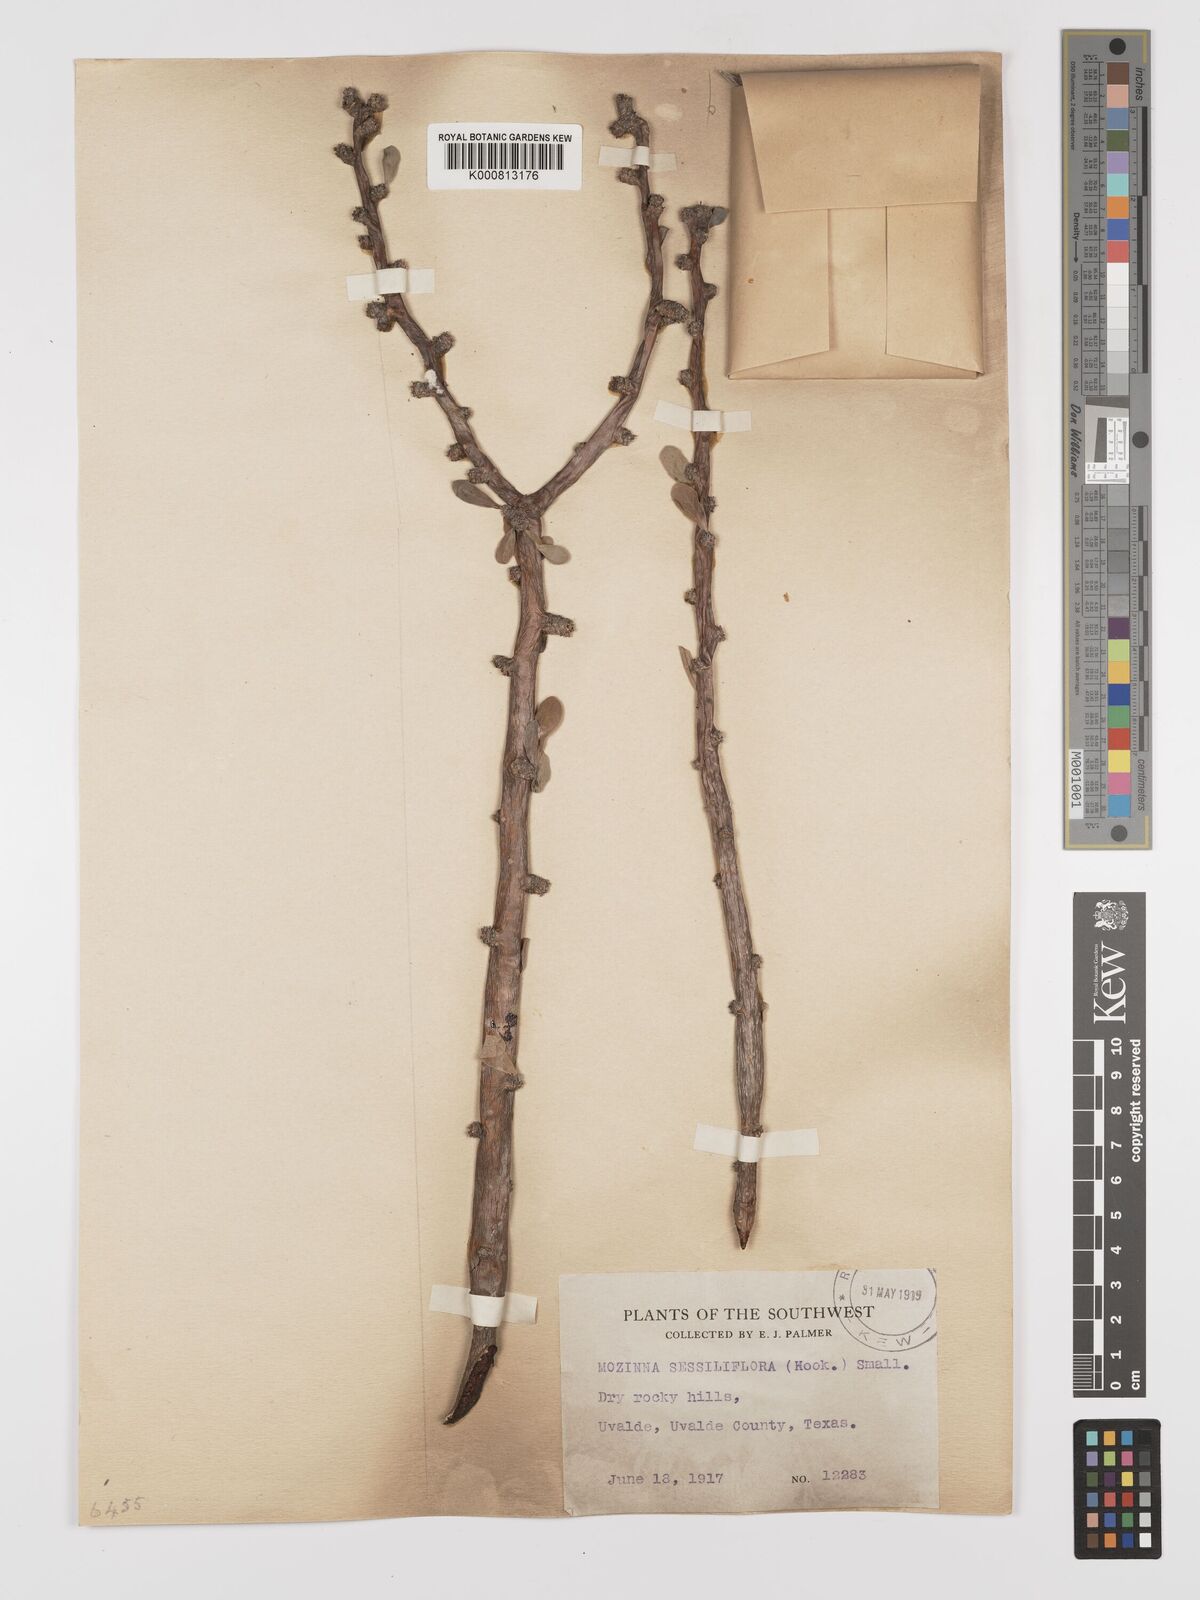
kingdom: Plantae
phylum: Tracheophyta
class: Magnoliopsida
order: Malpighiales
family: Euphorbiaceae
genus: Jatropha
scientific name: Jatropha
